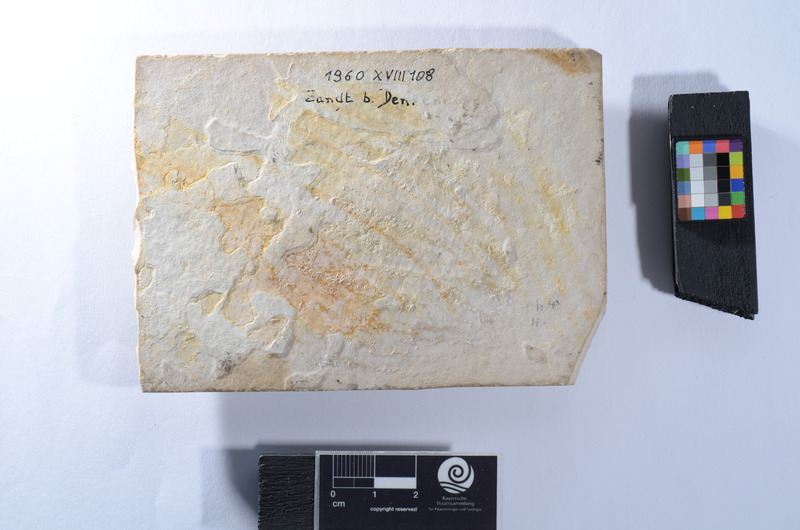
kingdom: Animalia
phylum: Chordata
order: Amiiformes
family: Ionoscopidae
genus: Ionoscopus
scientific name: Ionoscopus
